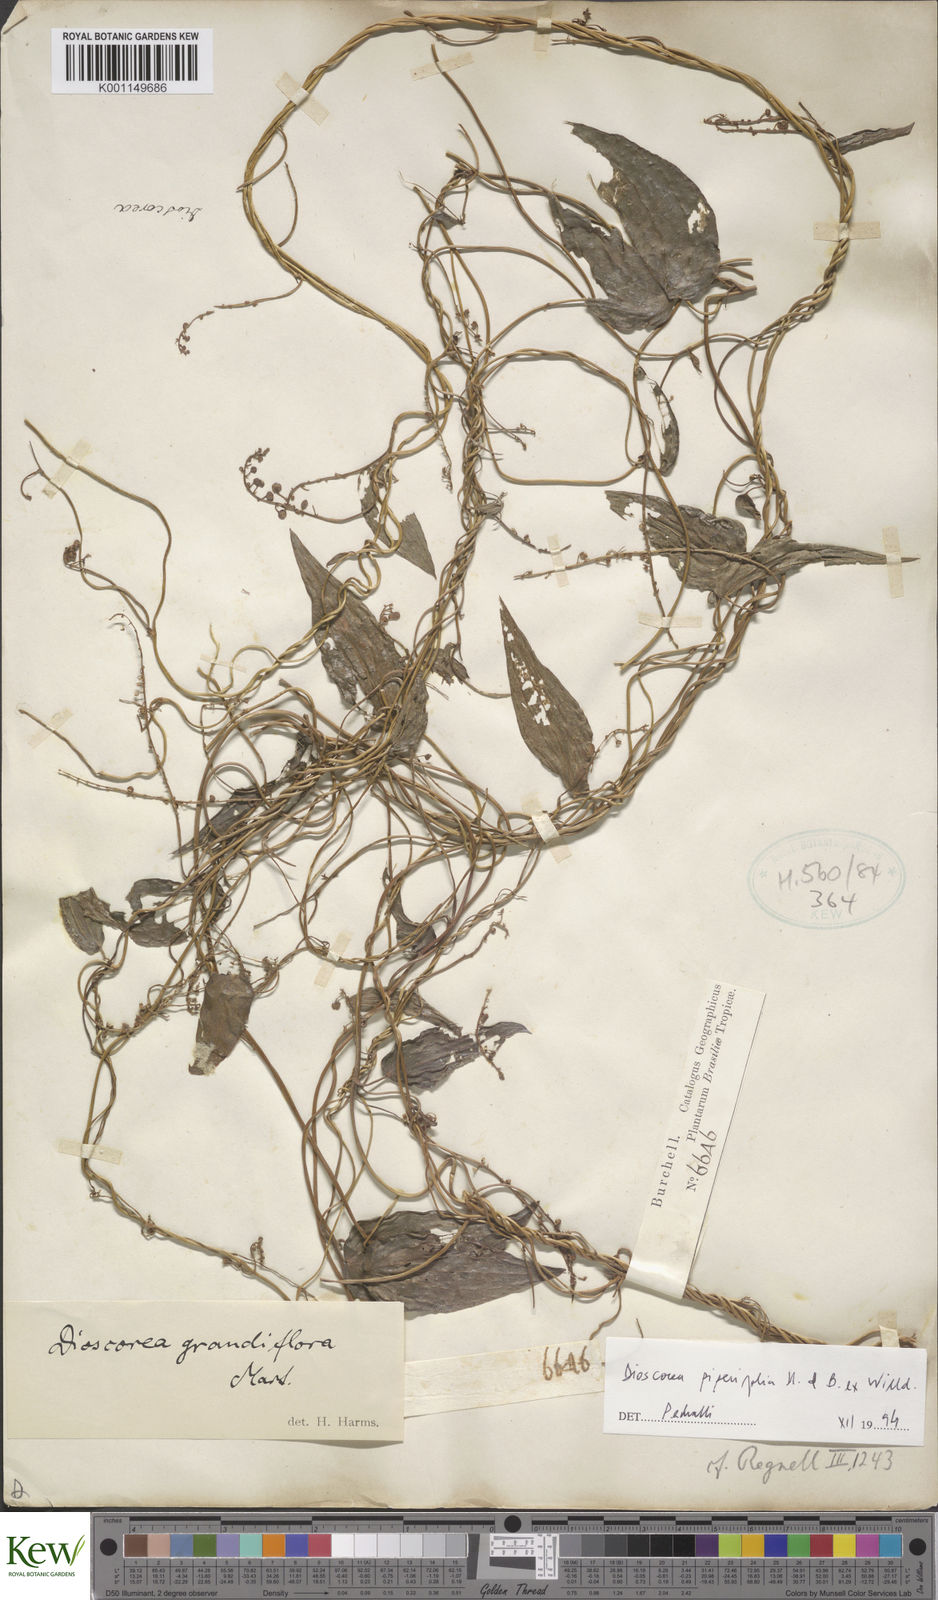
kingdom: Plantae
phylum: Tracheophyta
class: Liliopsida
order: Dioscoreales
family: Dioscoreaceae
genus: Dioscorea
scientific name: Dioscorea grandiflora
